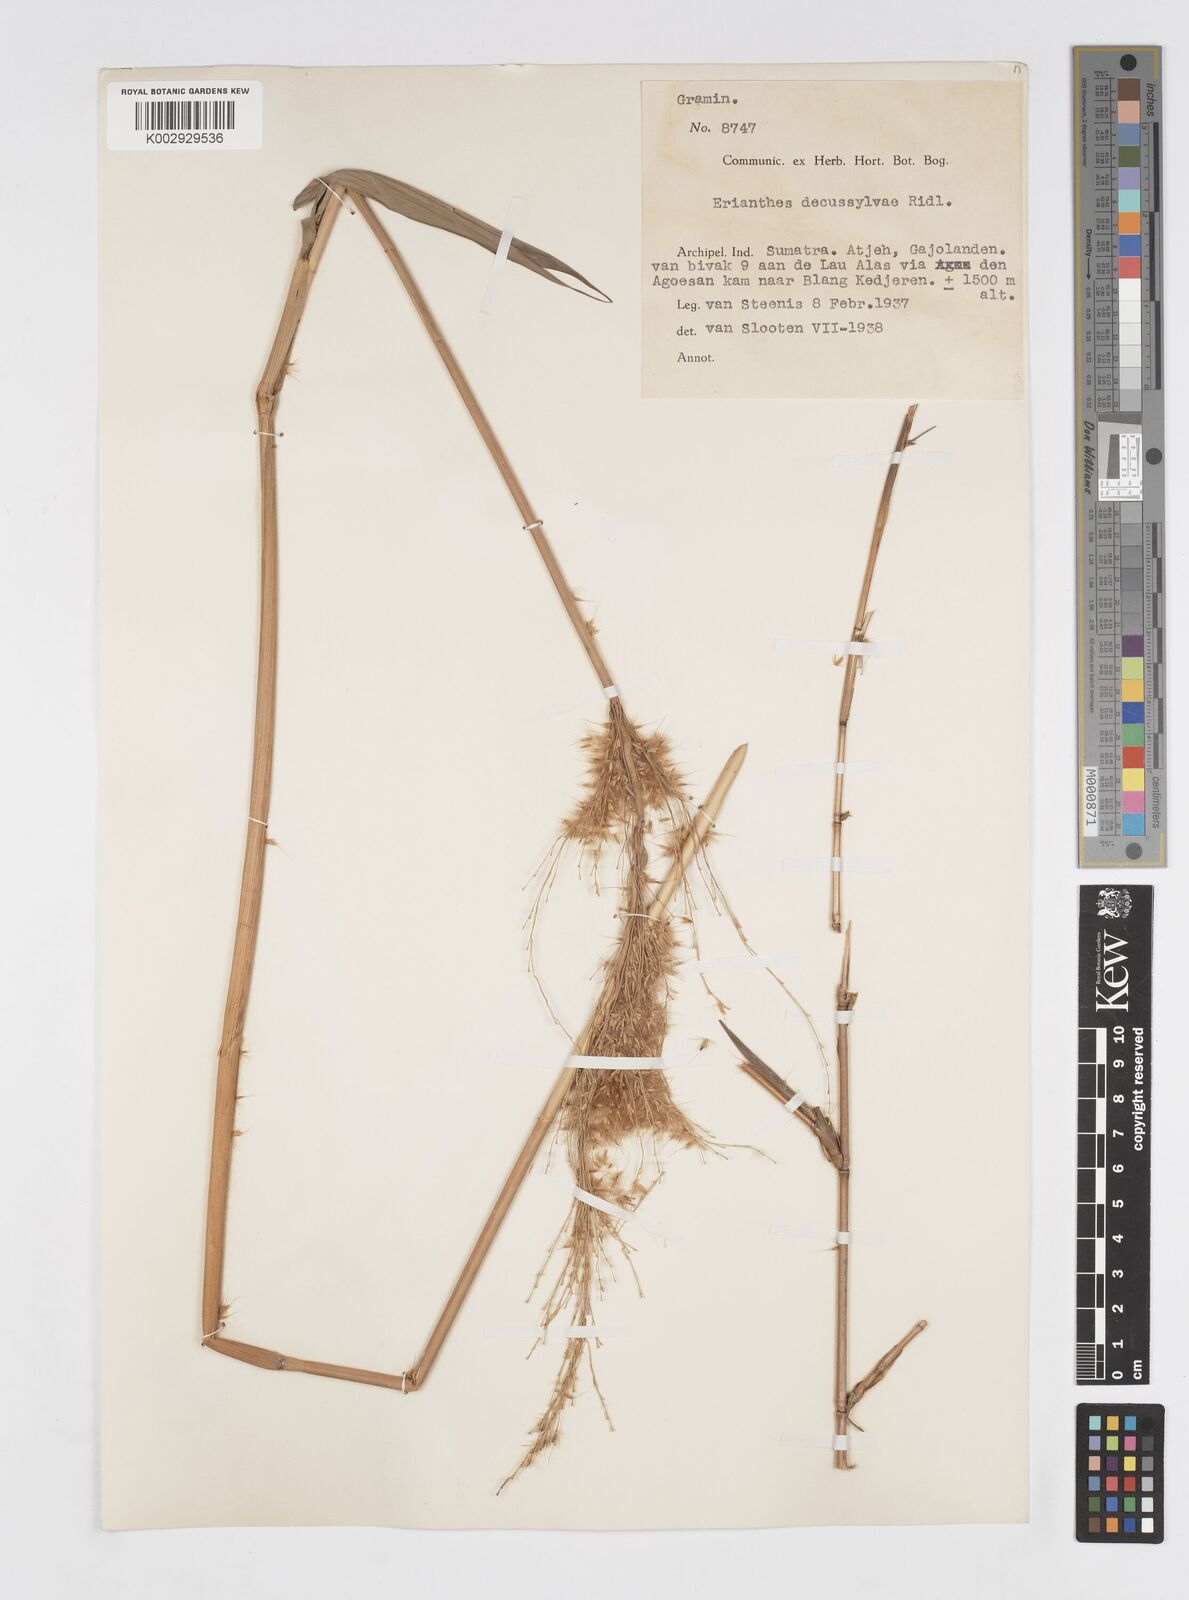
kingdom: Plantae
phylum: Tracheophyta
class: Liliopsida
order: Poales
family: Poaceae
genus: Saccharum
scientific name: Saccharum
